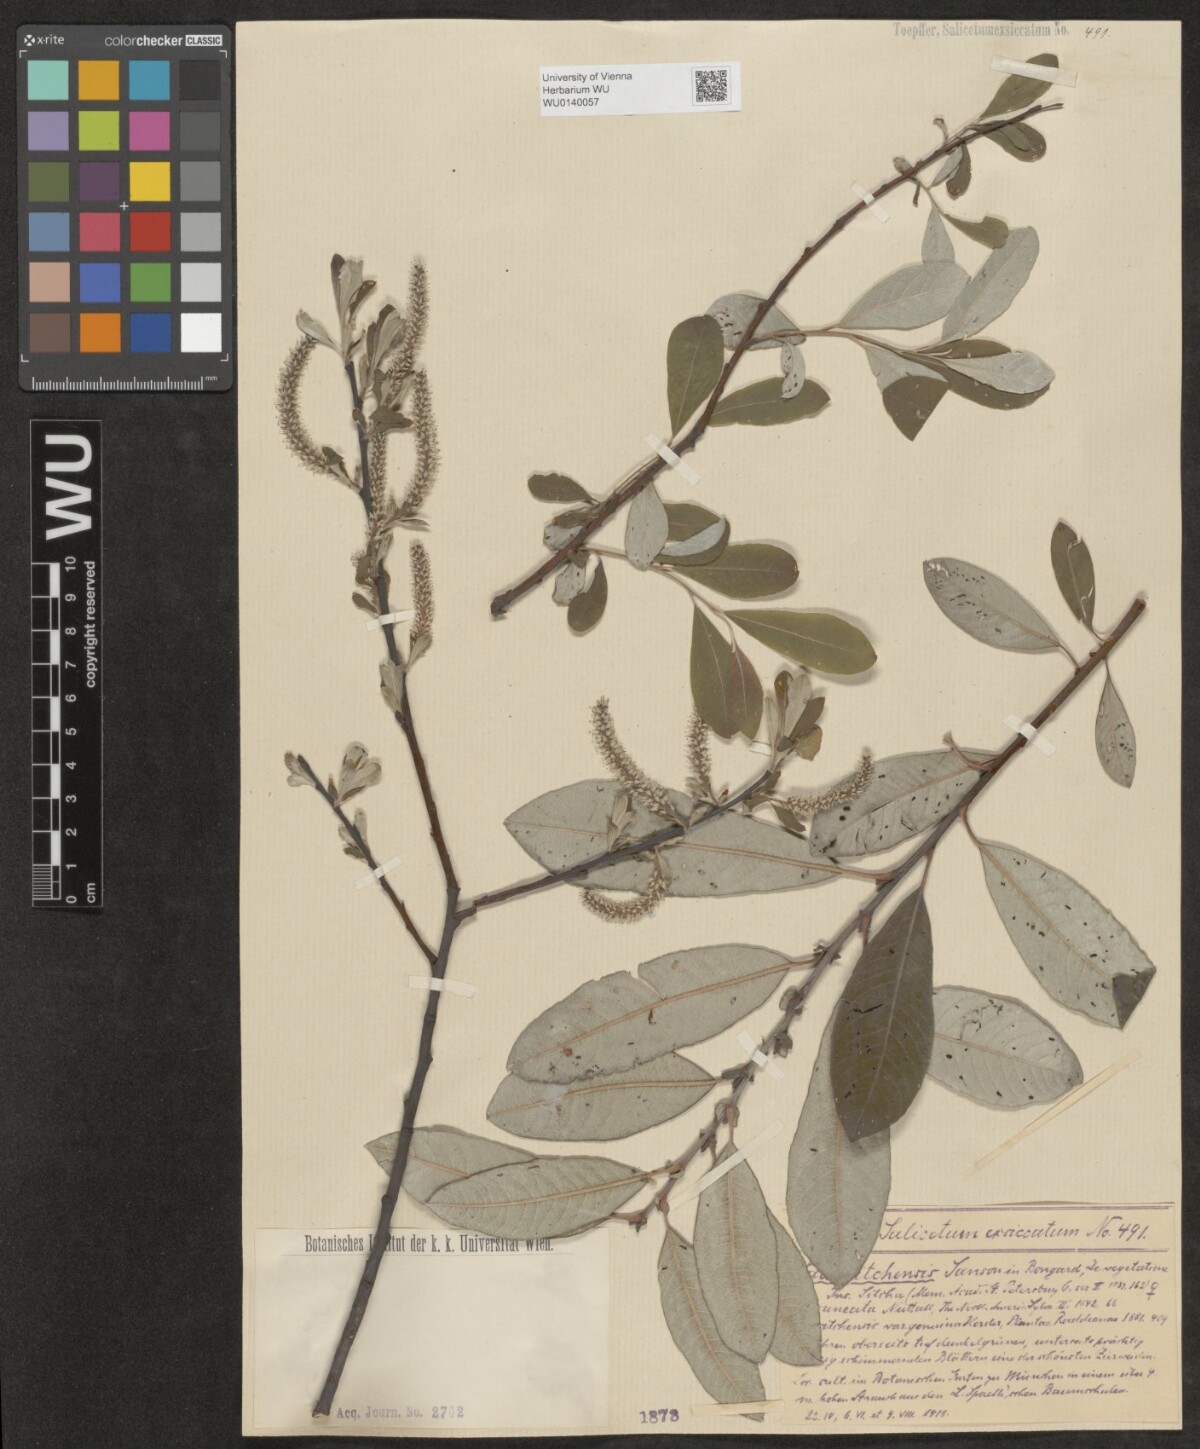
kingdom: Plantae
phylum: Tracheophyta
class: Magnoliopsida
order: Malpighiales
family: Salicaceae
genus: Salix
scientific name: Salix sitchensis
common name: Sitka willow
